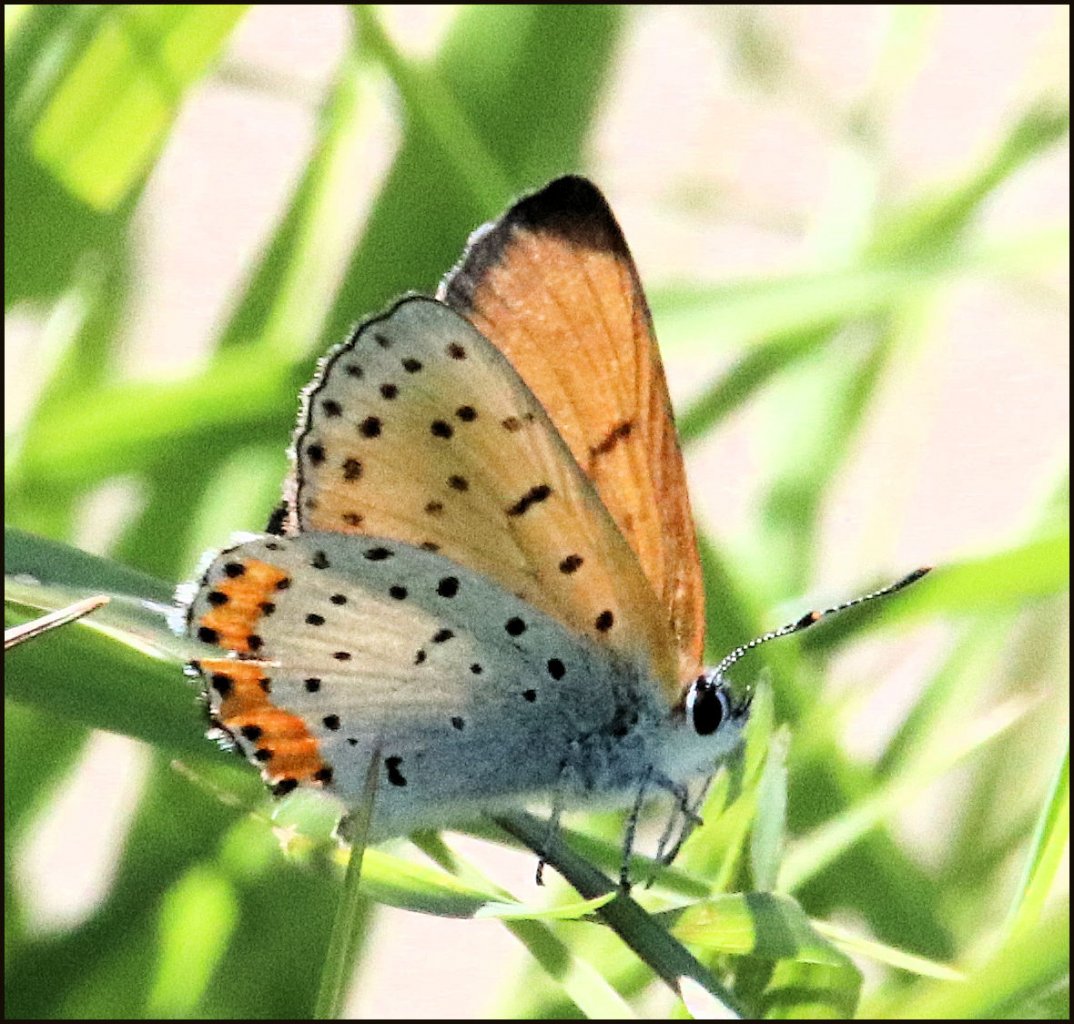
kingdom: Animalia
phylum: Arthropoda
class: Insecta
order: Lepidoptera
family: Sesiidae
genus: Sesia
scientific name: Sesia Lycaena hyllus
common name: Bronze Copper
